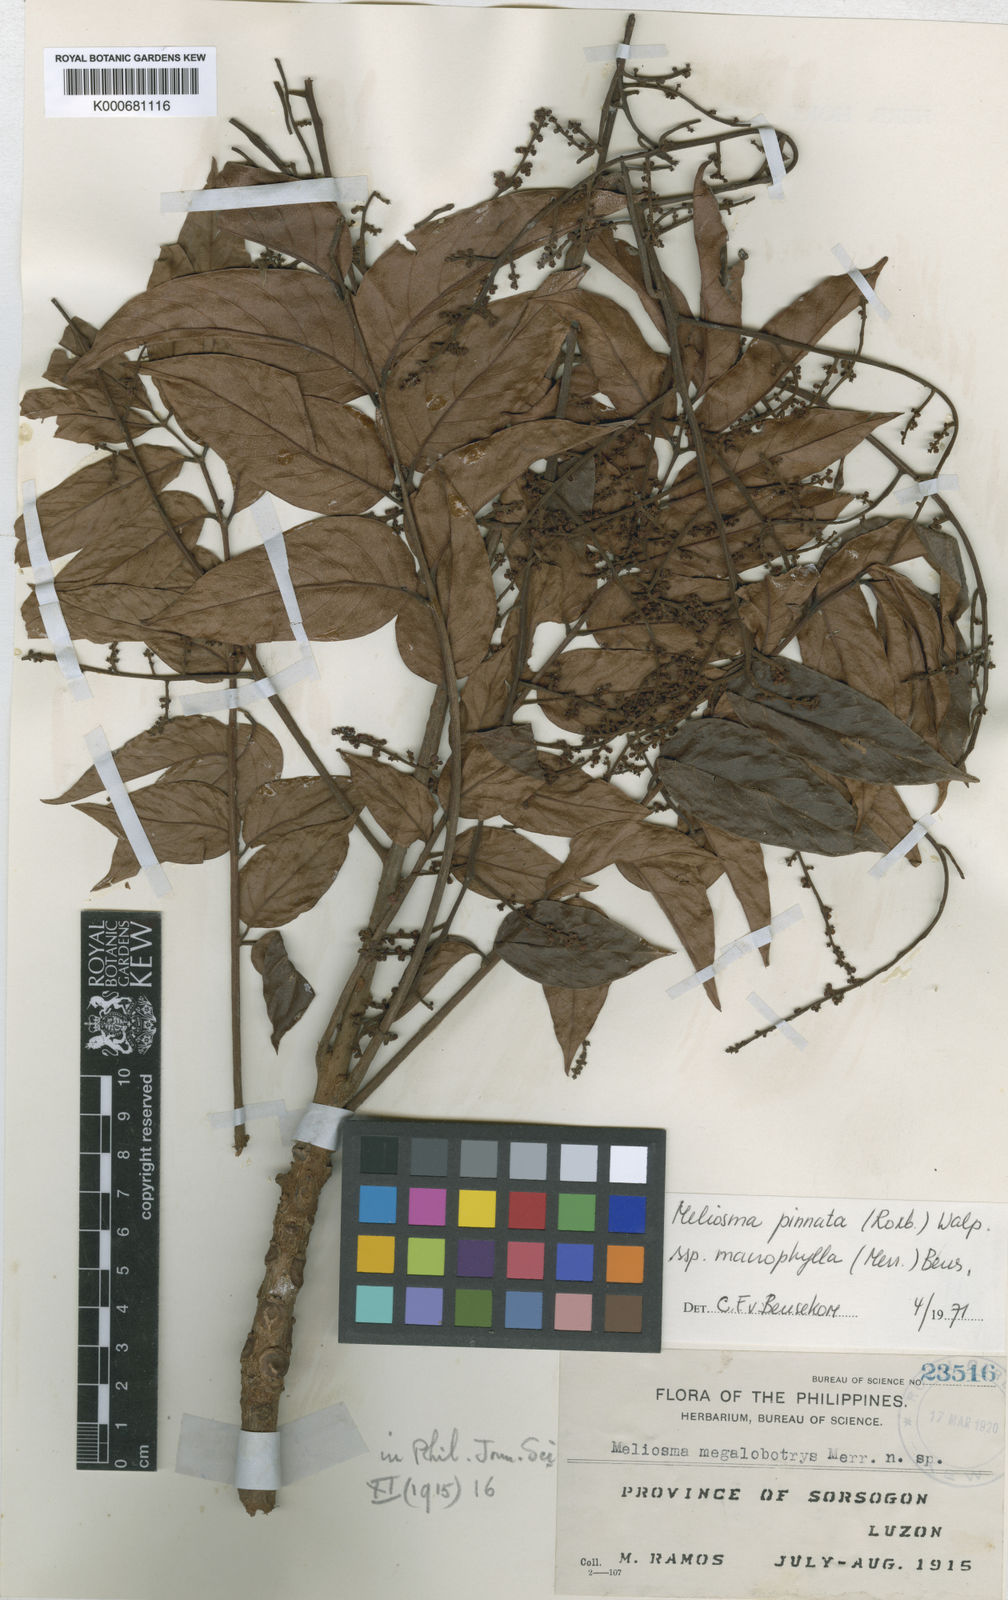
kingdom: Plantae
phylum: Tracheophyta
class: Magnoliopsida
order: Proteales
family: Sabiaceae
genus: Meliosma
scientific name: Meliosma pinnata
